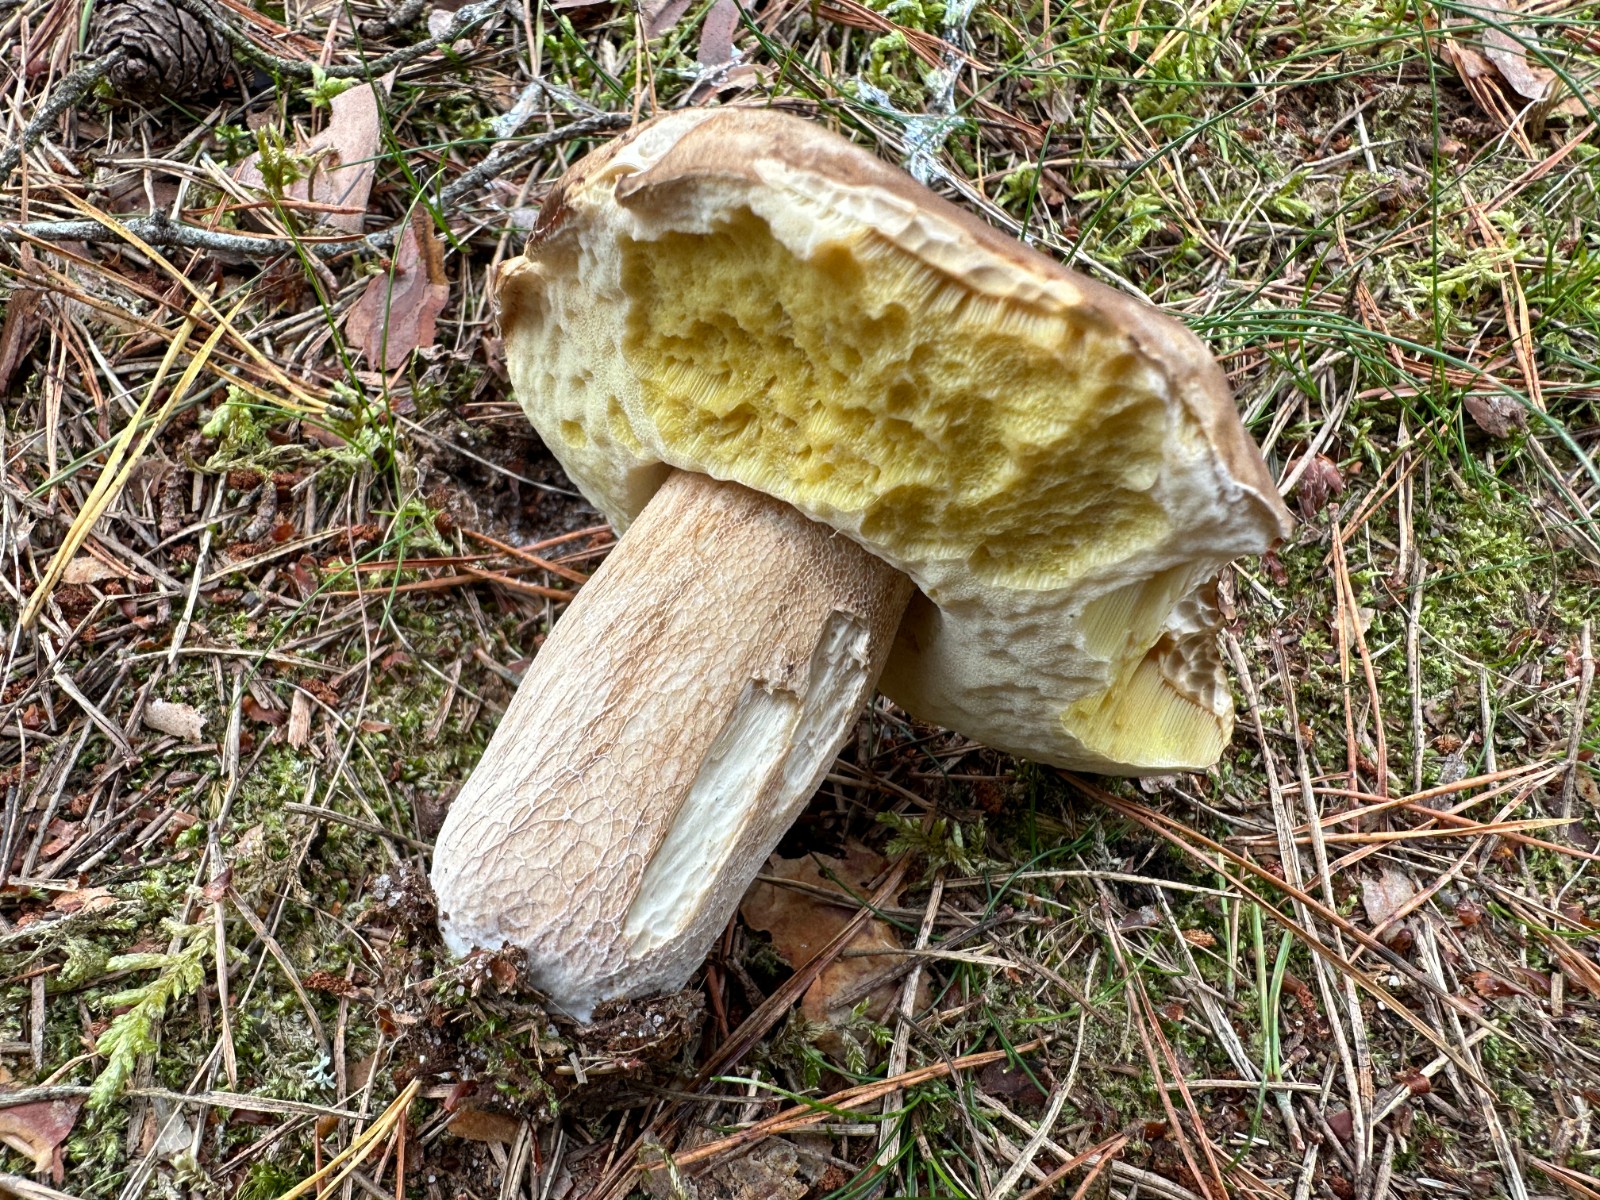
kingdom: Fungi
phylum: Basidiomycota
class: Agaricomycetes
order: Boletales
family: Boletaceae
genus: Boletus
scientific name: Boletus edulis
